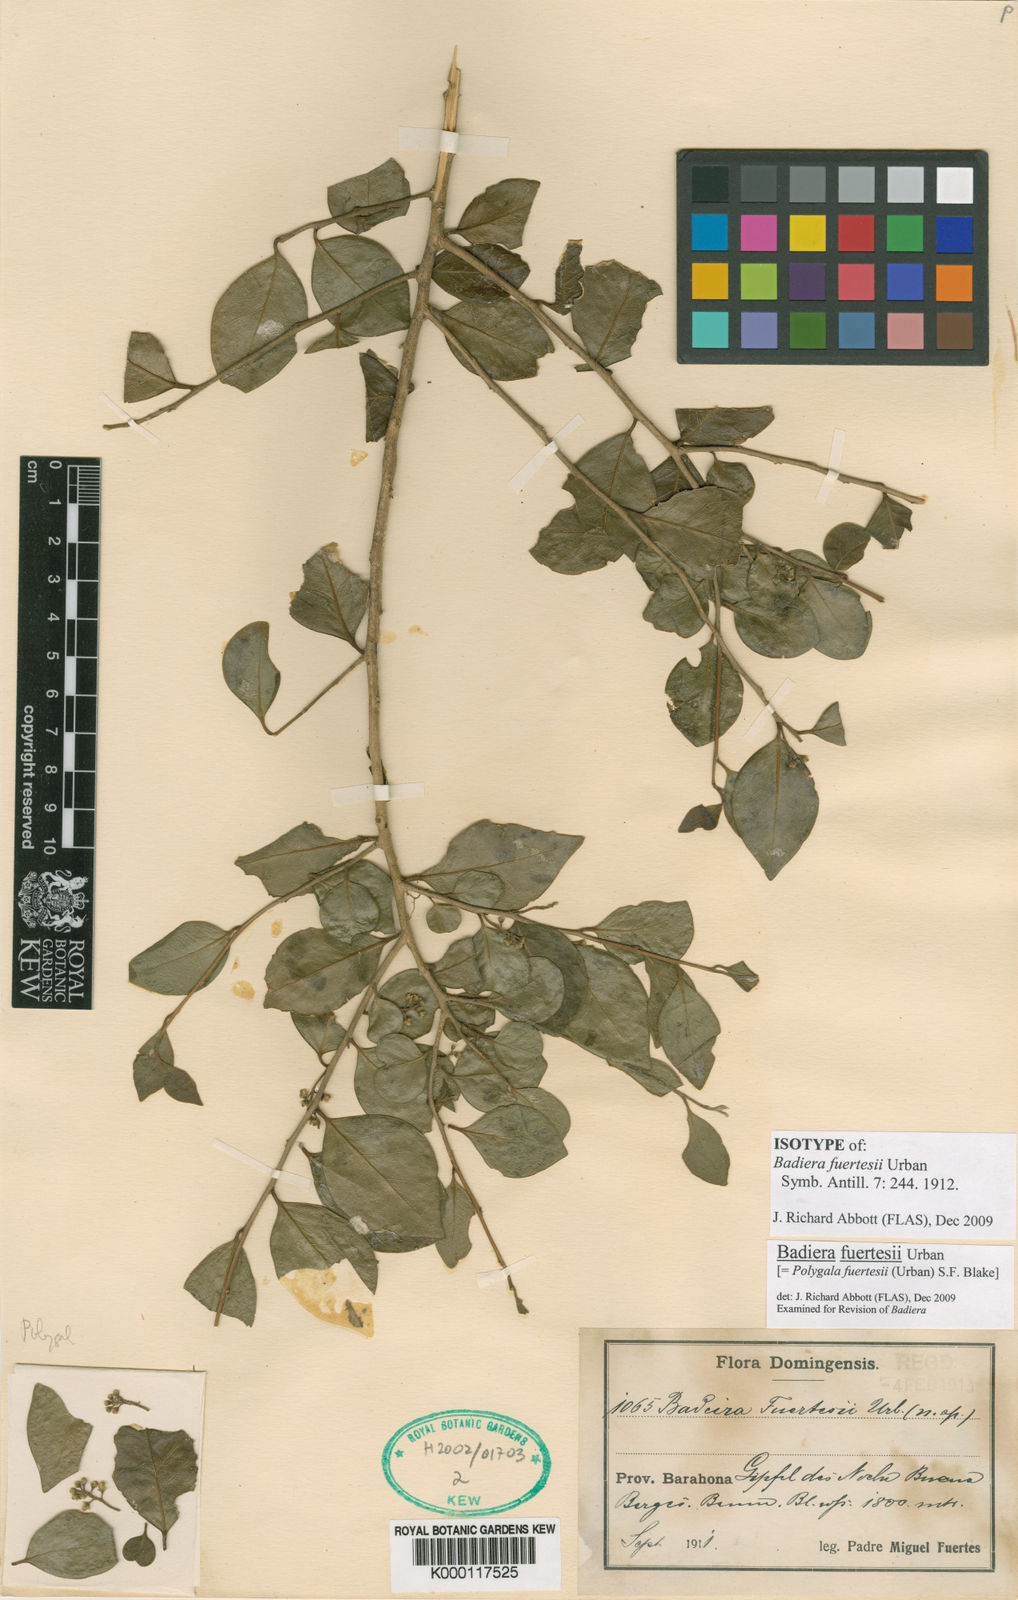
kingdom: Plantae
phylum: Tracheophyta
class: Magnoliopsida
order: Fabales
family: Polygalaceae
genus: Badiera
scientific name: Badiera fuertesii
